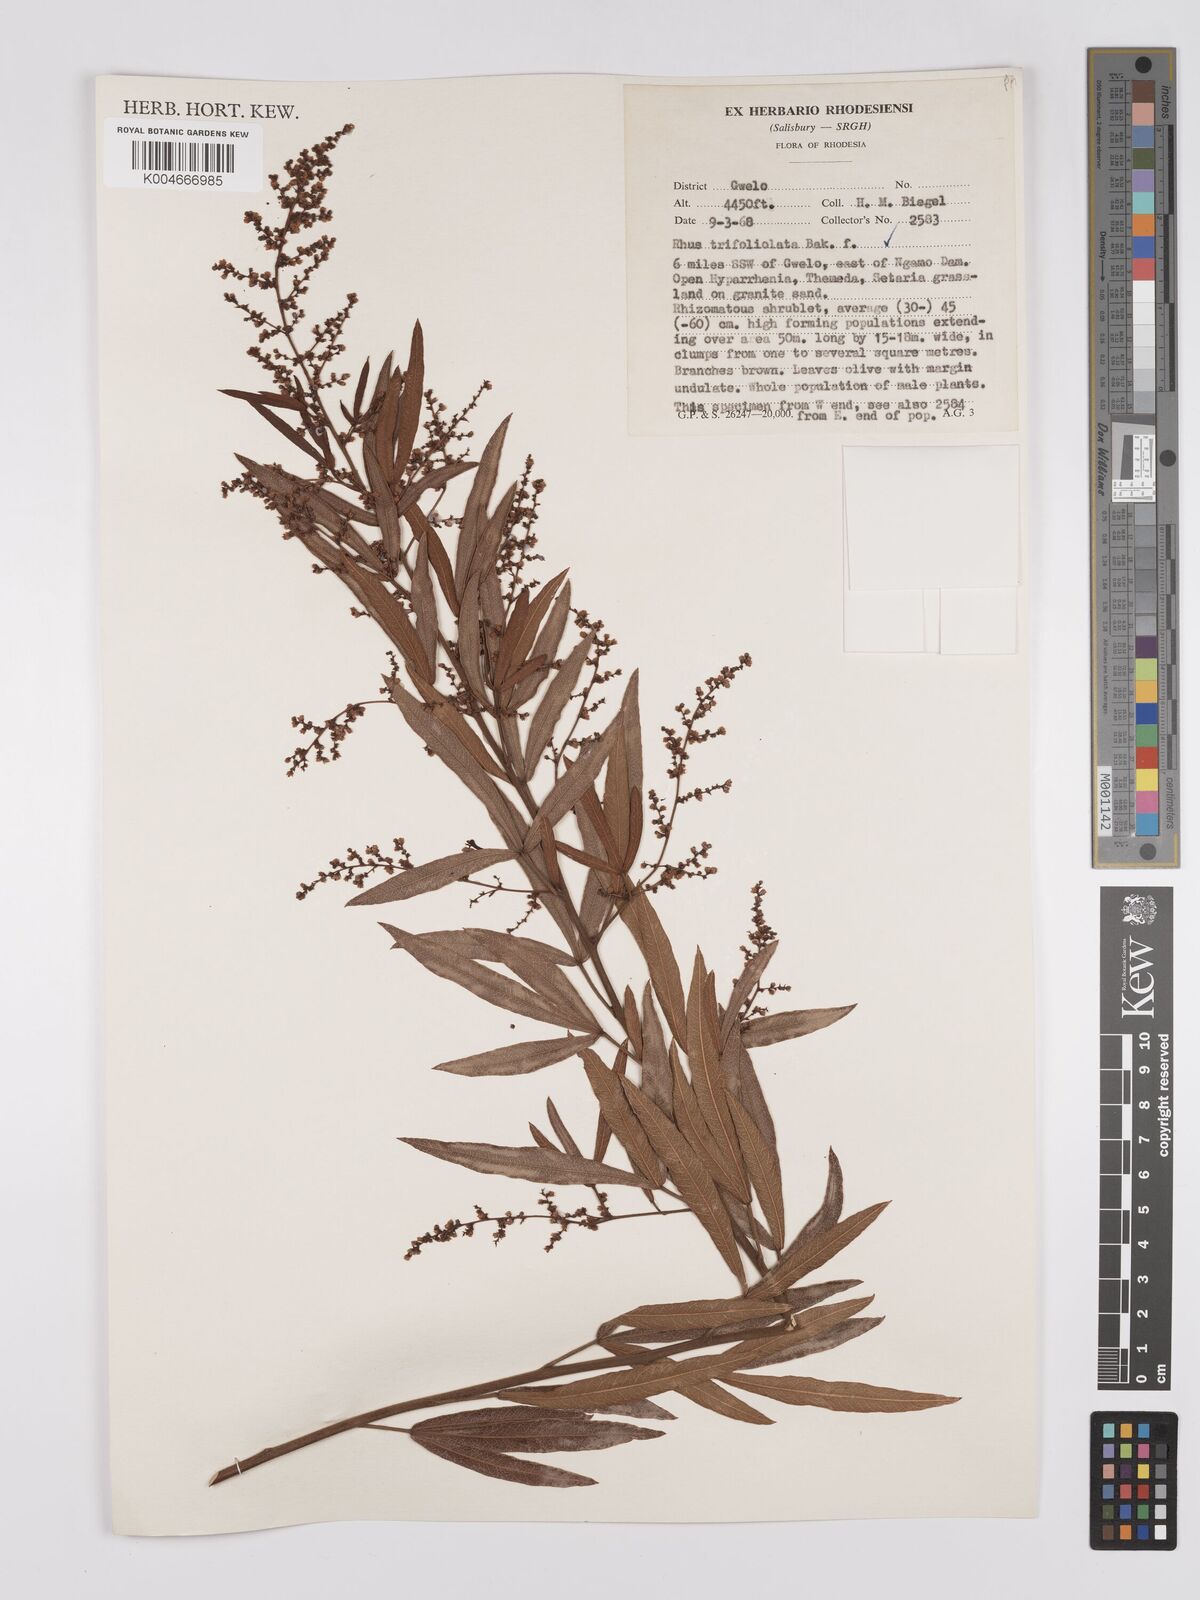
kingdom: Plantae
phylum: Tracheophyta
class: Magnoliopsida
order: Sapindales
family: Anacardiaceae
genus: Rhus
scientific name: Rhus
